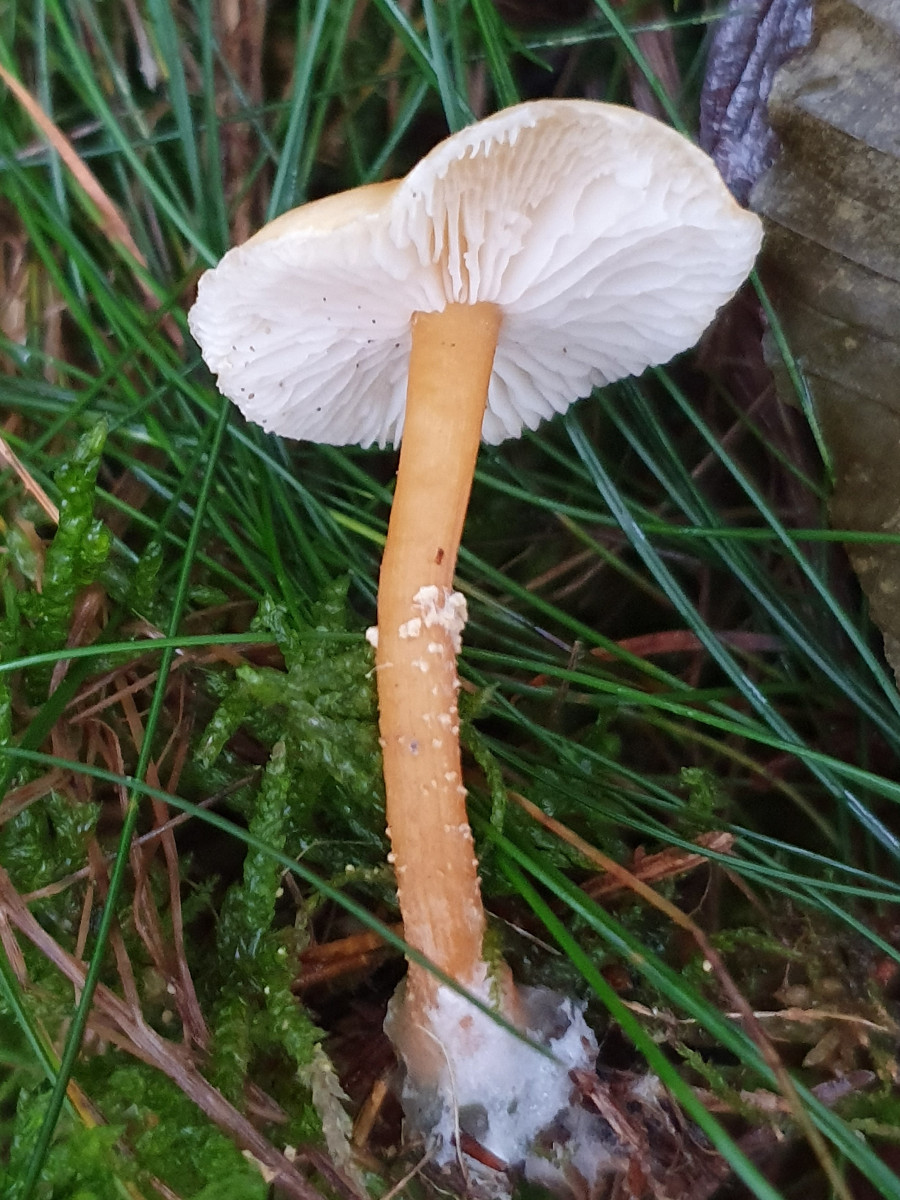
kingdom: Fungi
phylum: Basidiomycota
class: Agaricomycetes
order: Agaricales
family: Tricholomataceae
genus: Cystoderma
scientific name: Cystoderma amianthinum
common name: okkergul grynhat
